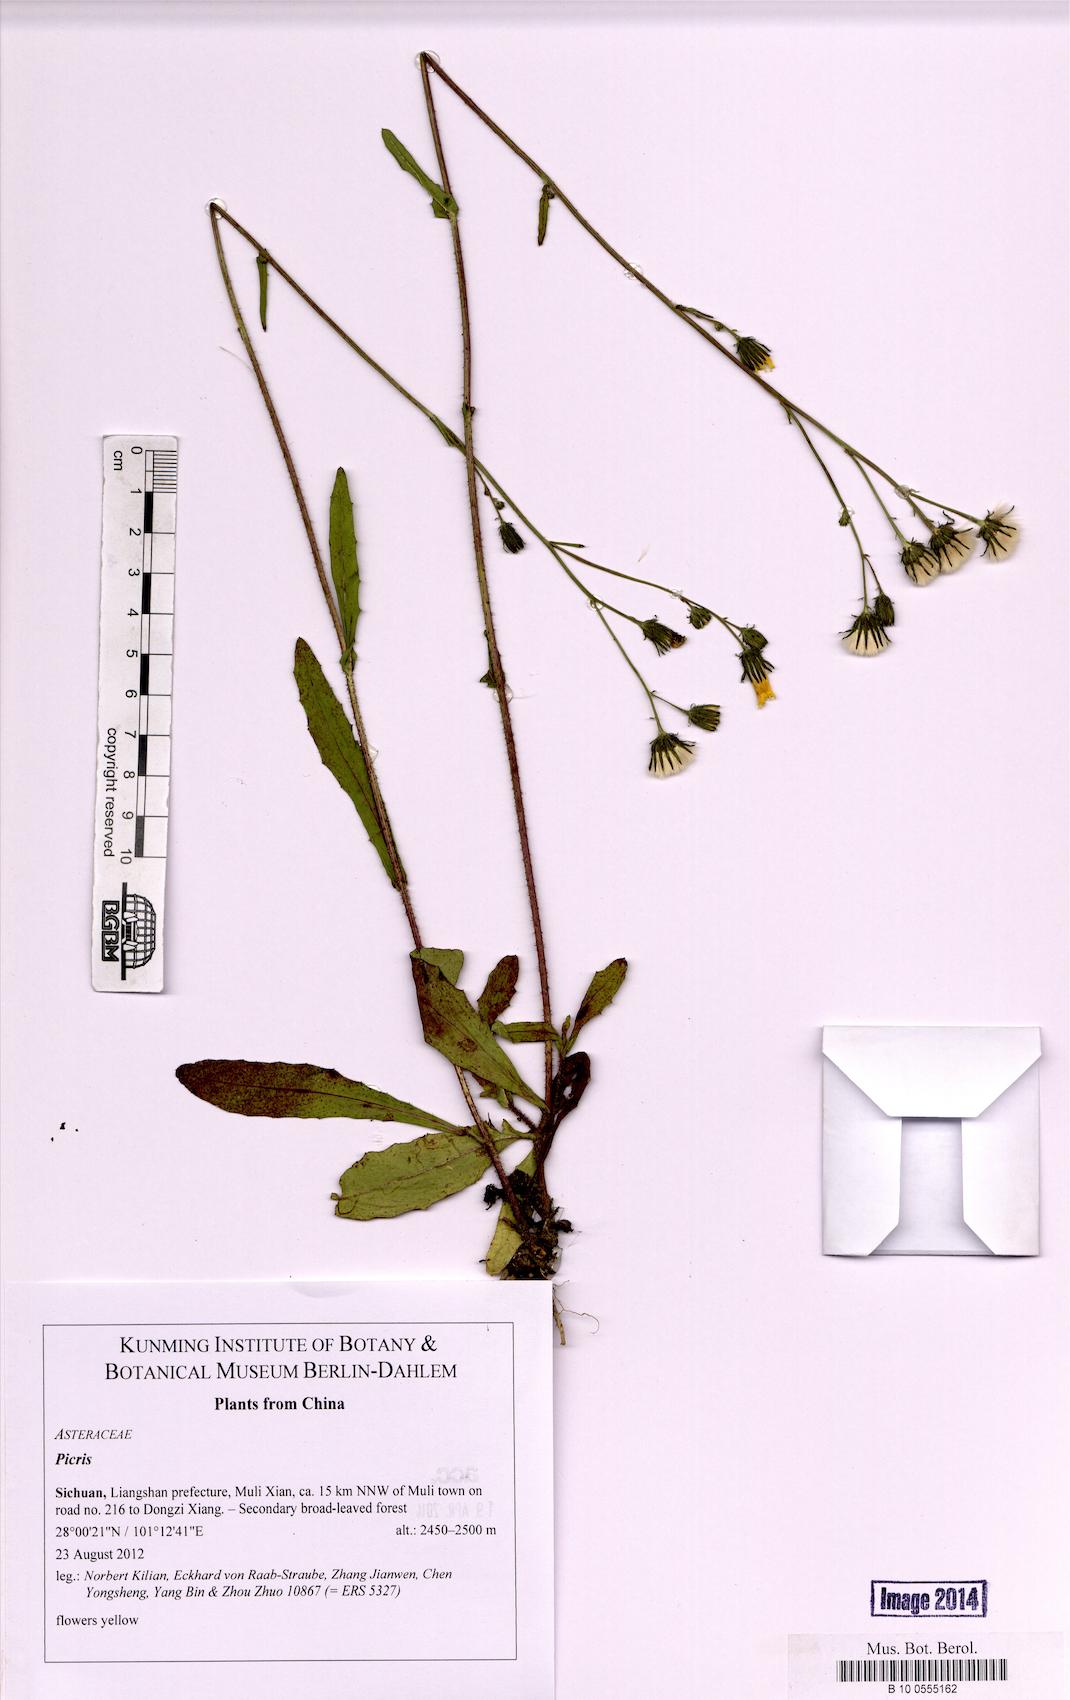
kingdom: Plantae
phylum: Tracheophyta
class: Magnoliopsida
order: Asterales
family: Asteraceae
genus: Picris
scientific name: Picris
